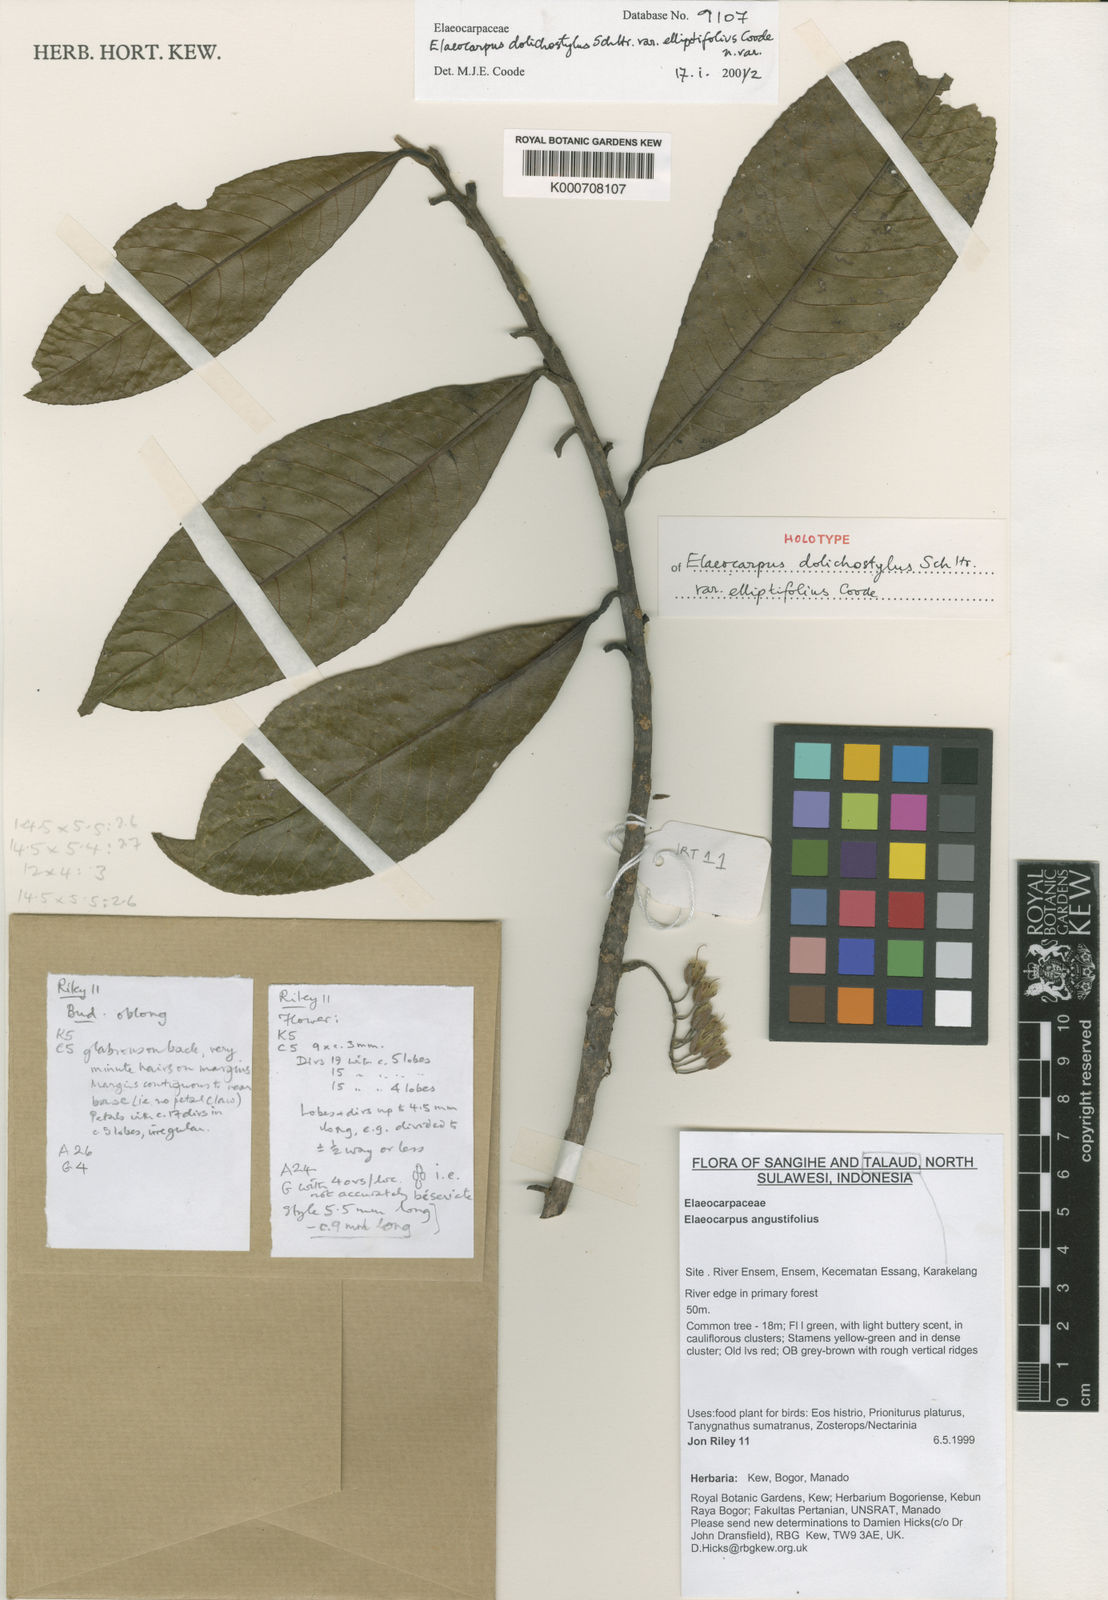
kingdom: Plantae
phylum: Tracheophyta
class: Magnoliopsida
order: Oxalidales
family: Elaeocarpaceae
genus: Elaeocarpus
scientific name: Elaeocarpus dolichostylus
